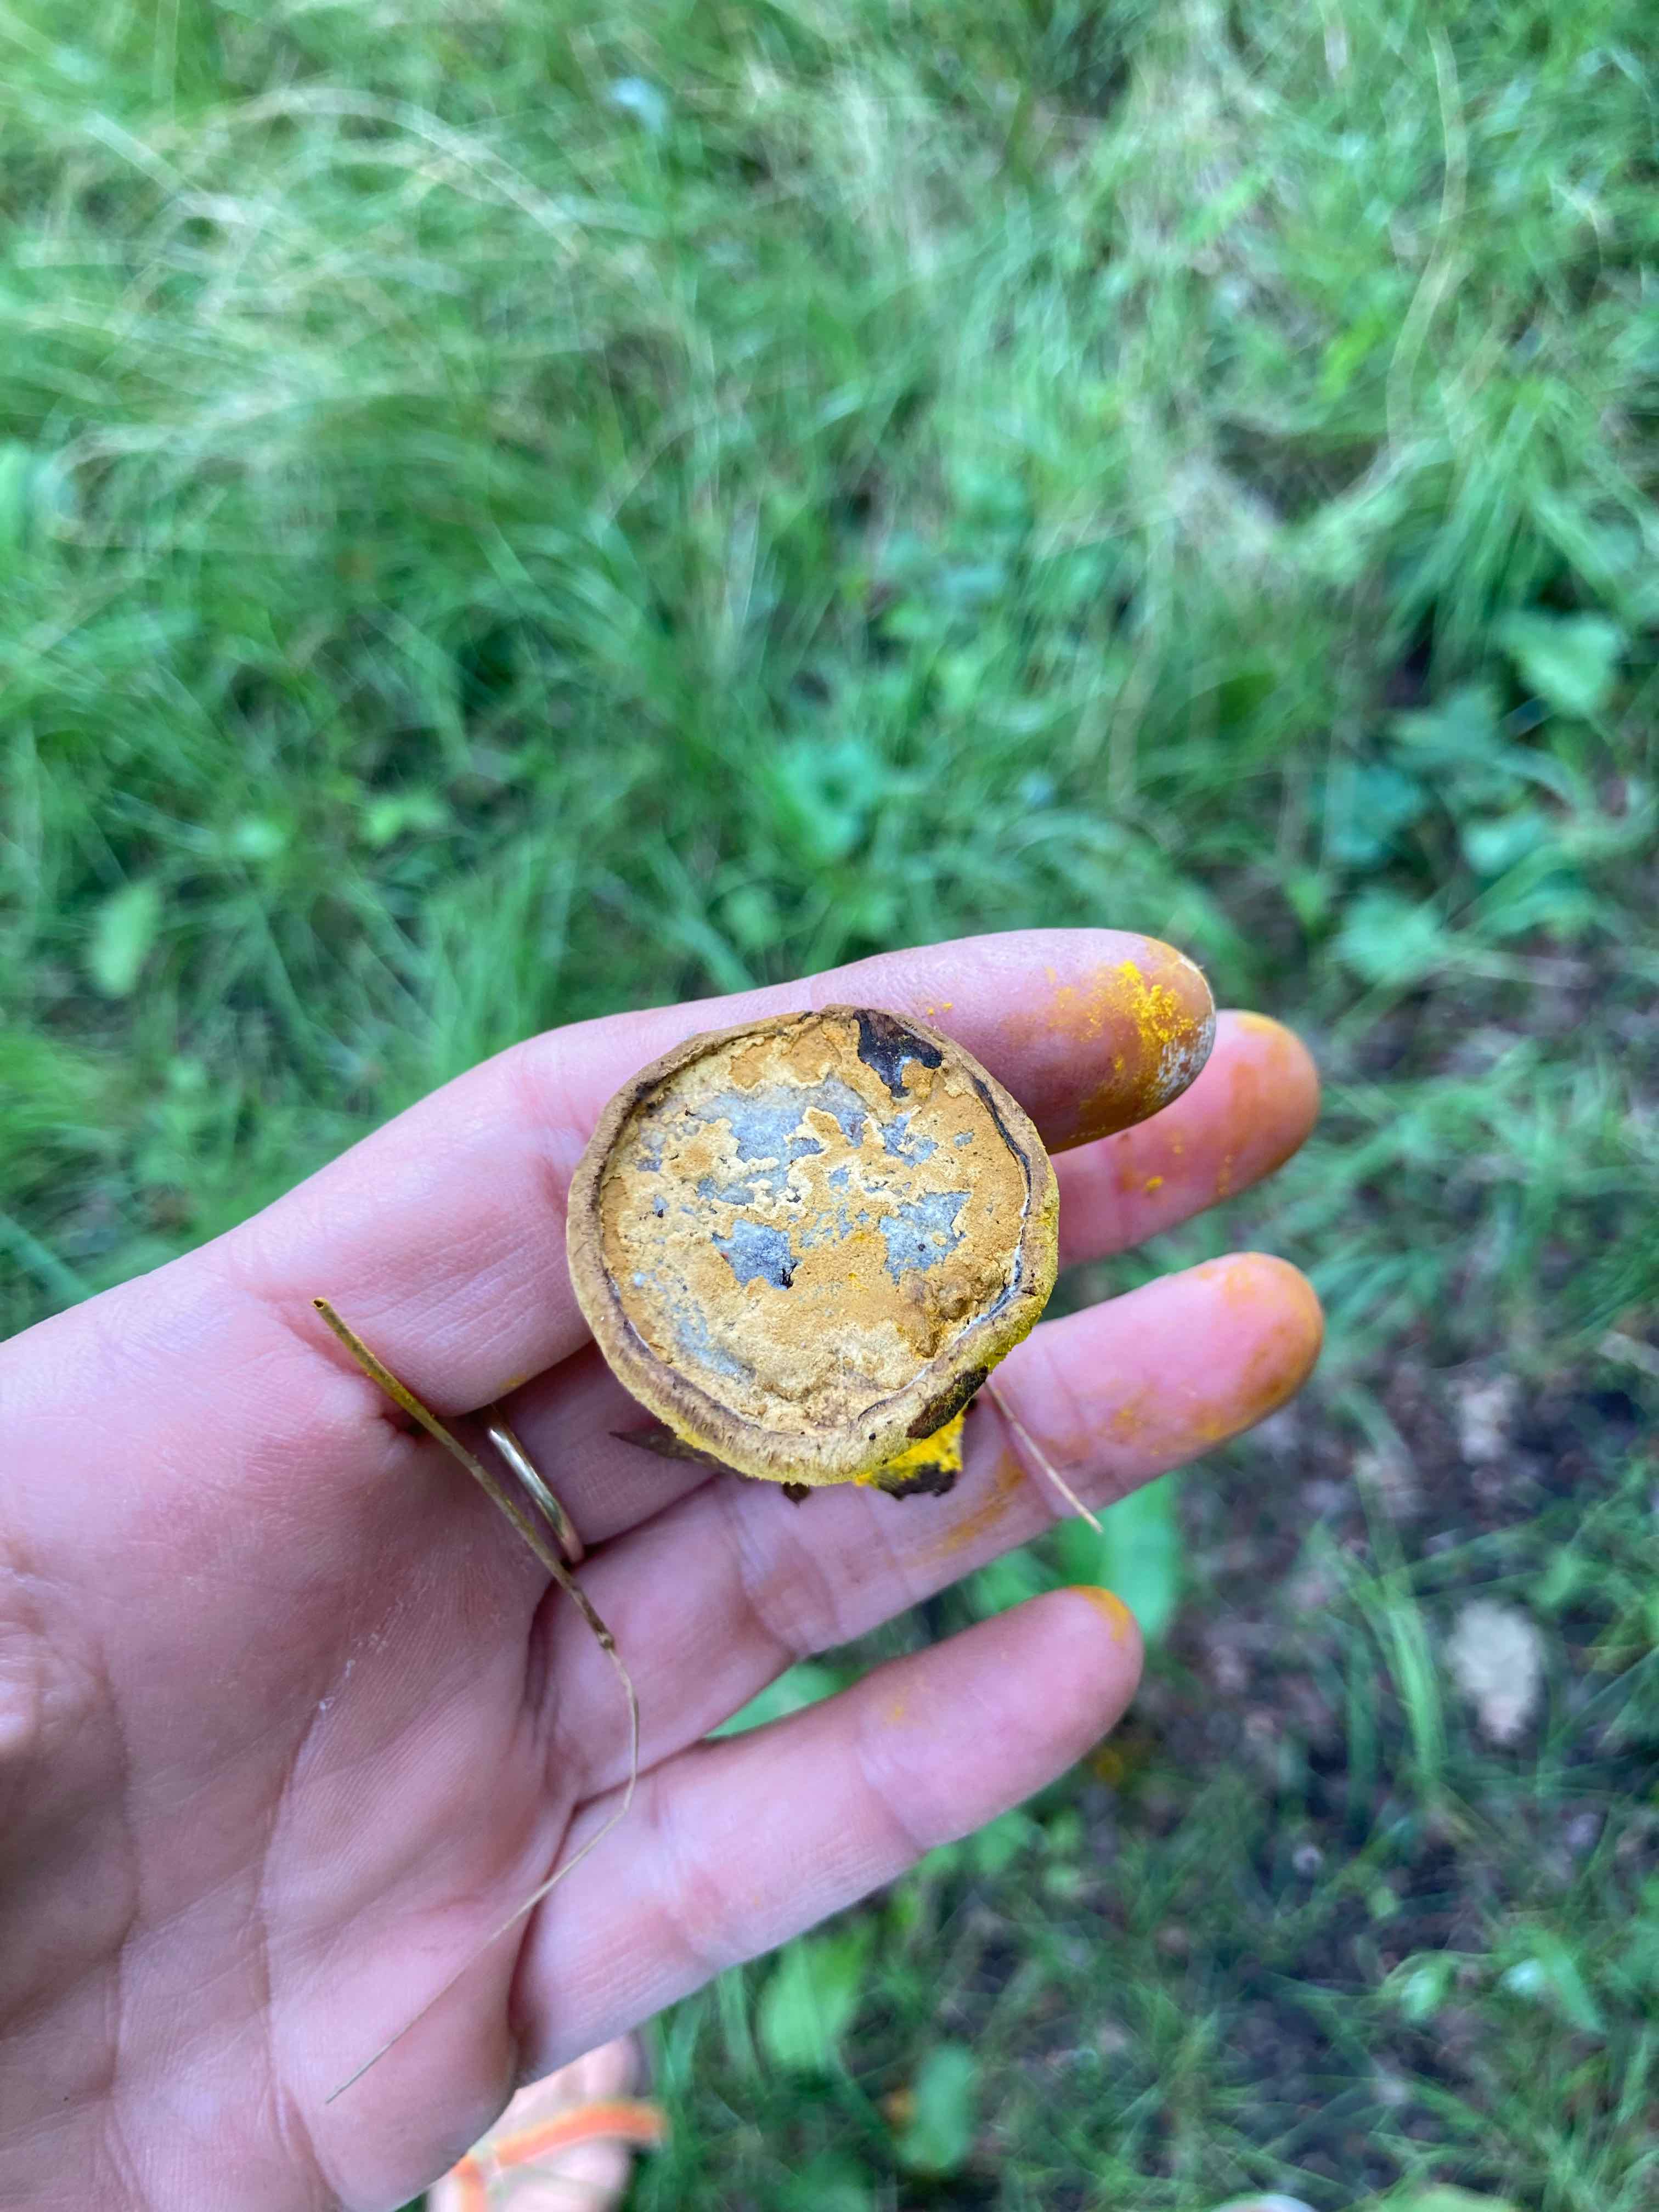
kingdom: Fungi
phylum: Ascomycota
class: Sordariomycetes
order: Hypocreales
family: Hypocreaceae
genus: Hypomyces
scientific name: Hypomyces microspermus
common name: dværgrørhat-snylteskorpe
